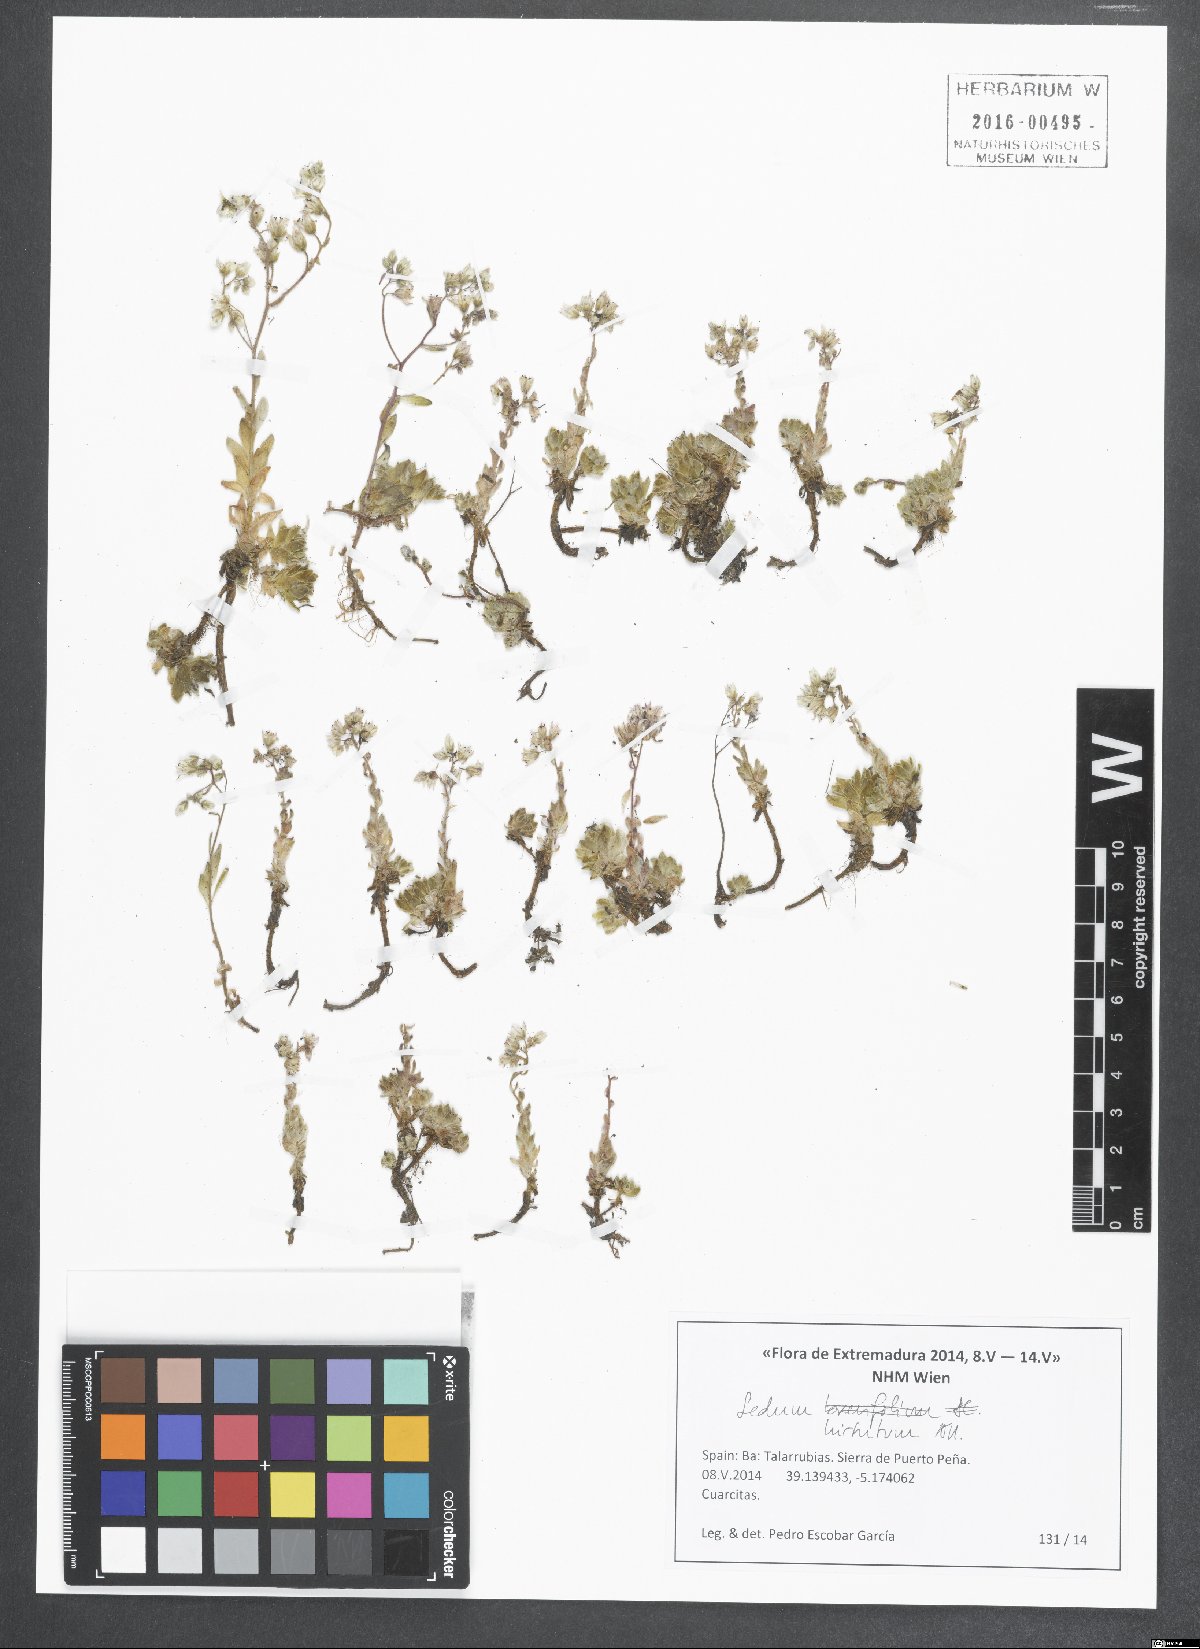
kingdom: Plantae
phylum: Tracheophyta
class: Magnoliopsida
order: Saxifragales
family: Crassulaceae
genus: Sedum
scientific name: Sedum hirsutum
